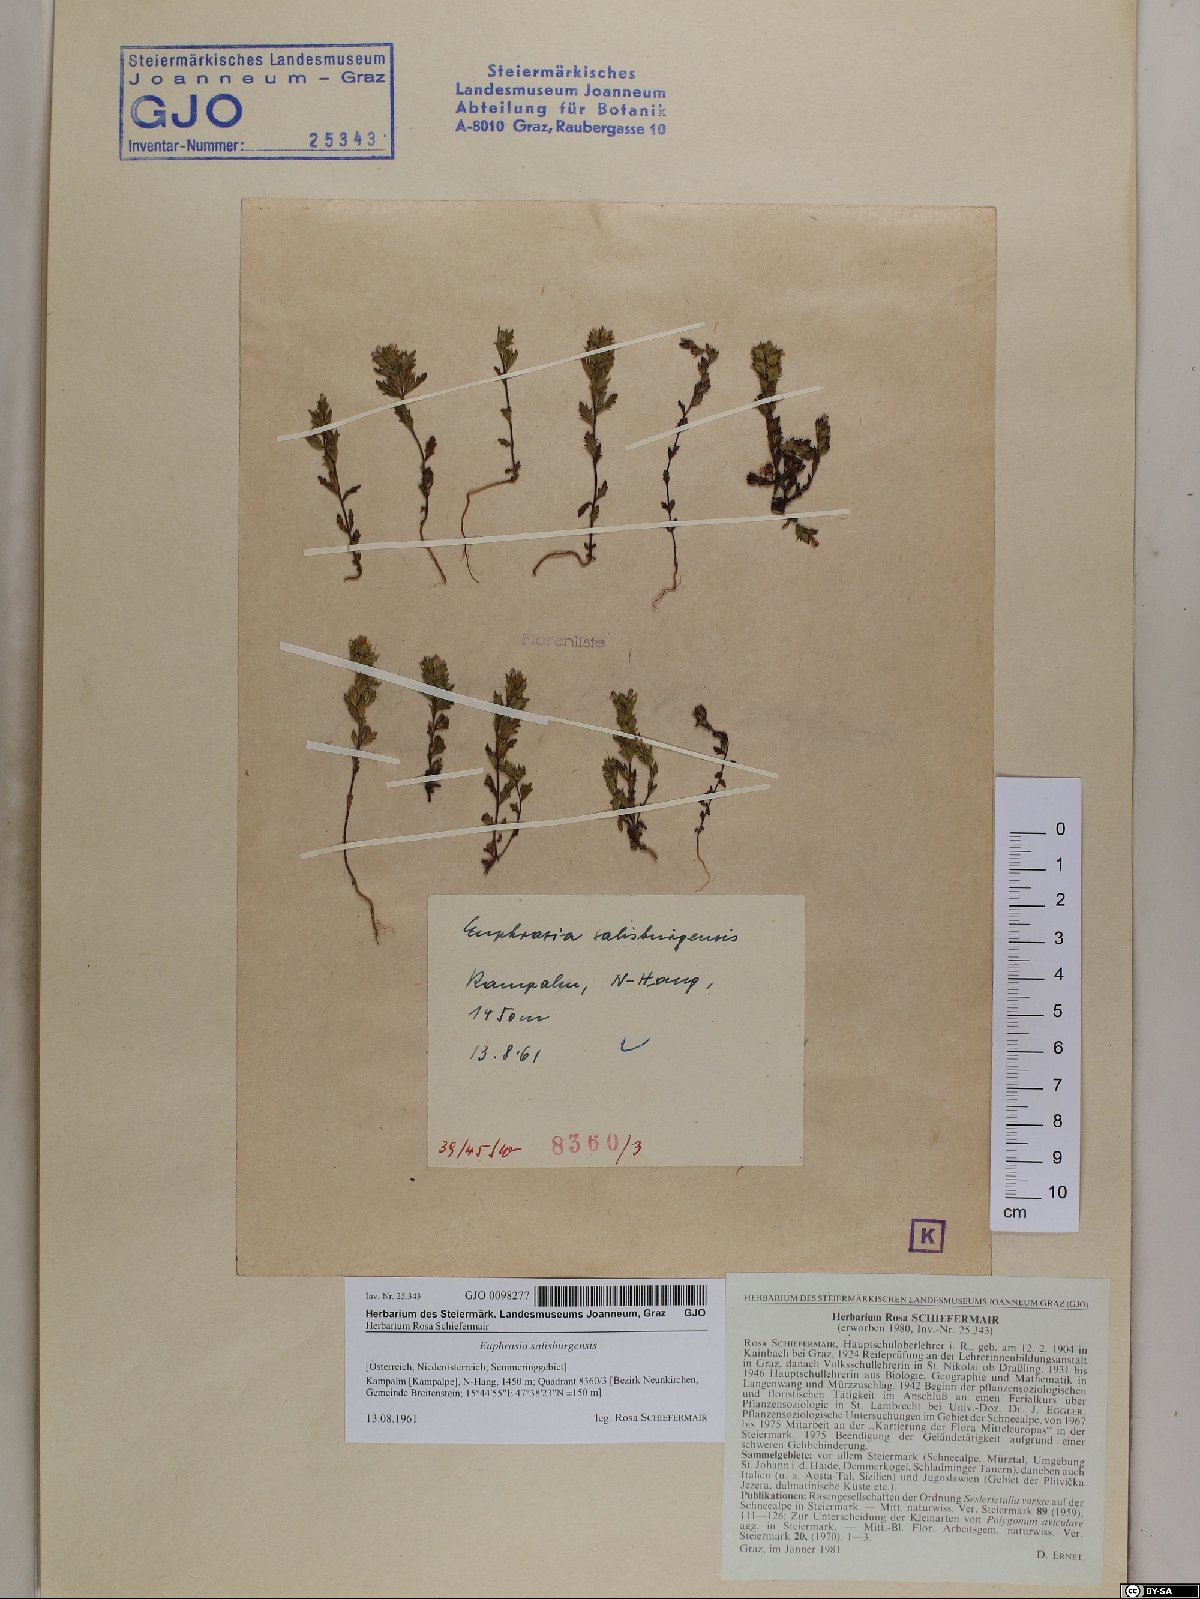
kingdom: Plantae
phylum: Tracheophyta
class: Magnoliopsida
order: Lamiales
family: Orobanchaceae
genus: Euphrasia
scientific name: Euphrasia salisburgensis
